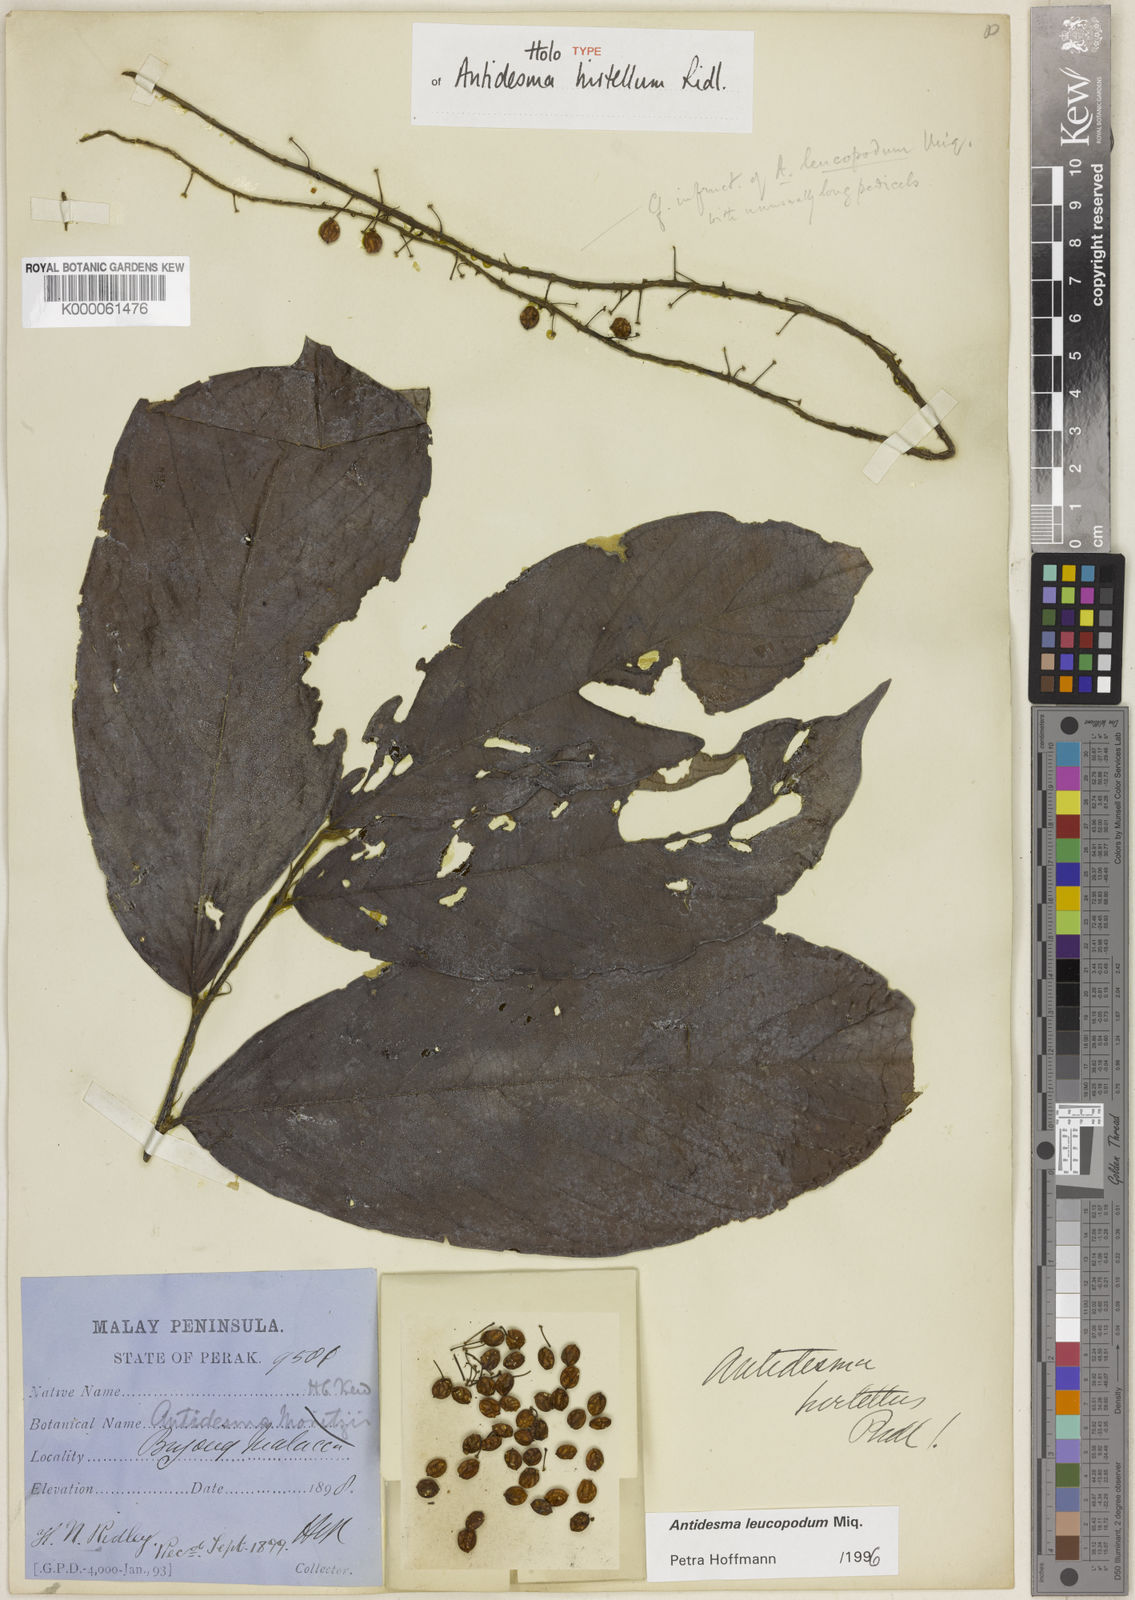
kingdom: Plantae
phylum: Tracheophyta
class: Magnoliopsida
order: Malpighiales
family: Phyllanthaceae
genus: Antidesma
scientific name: Antidesma leucopodum
